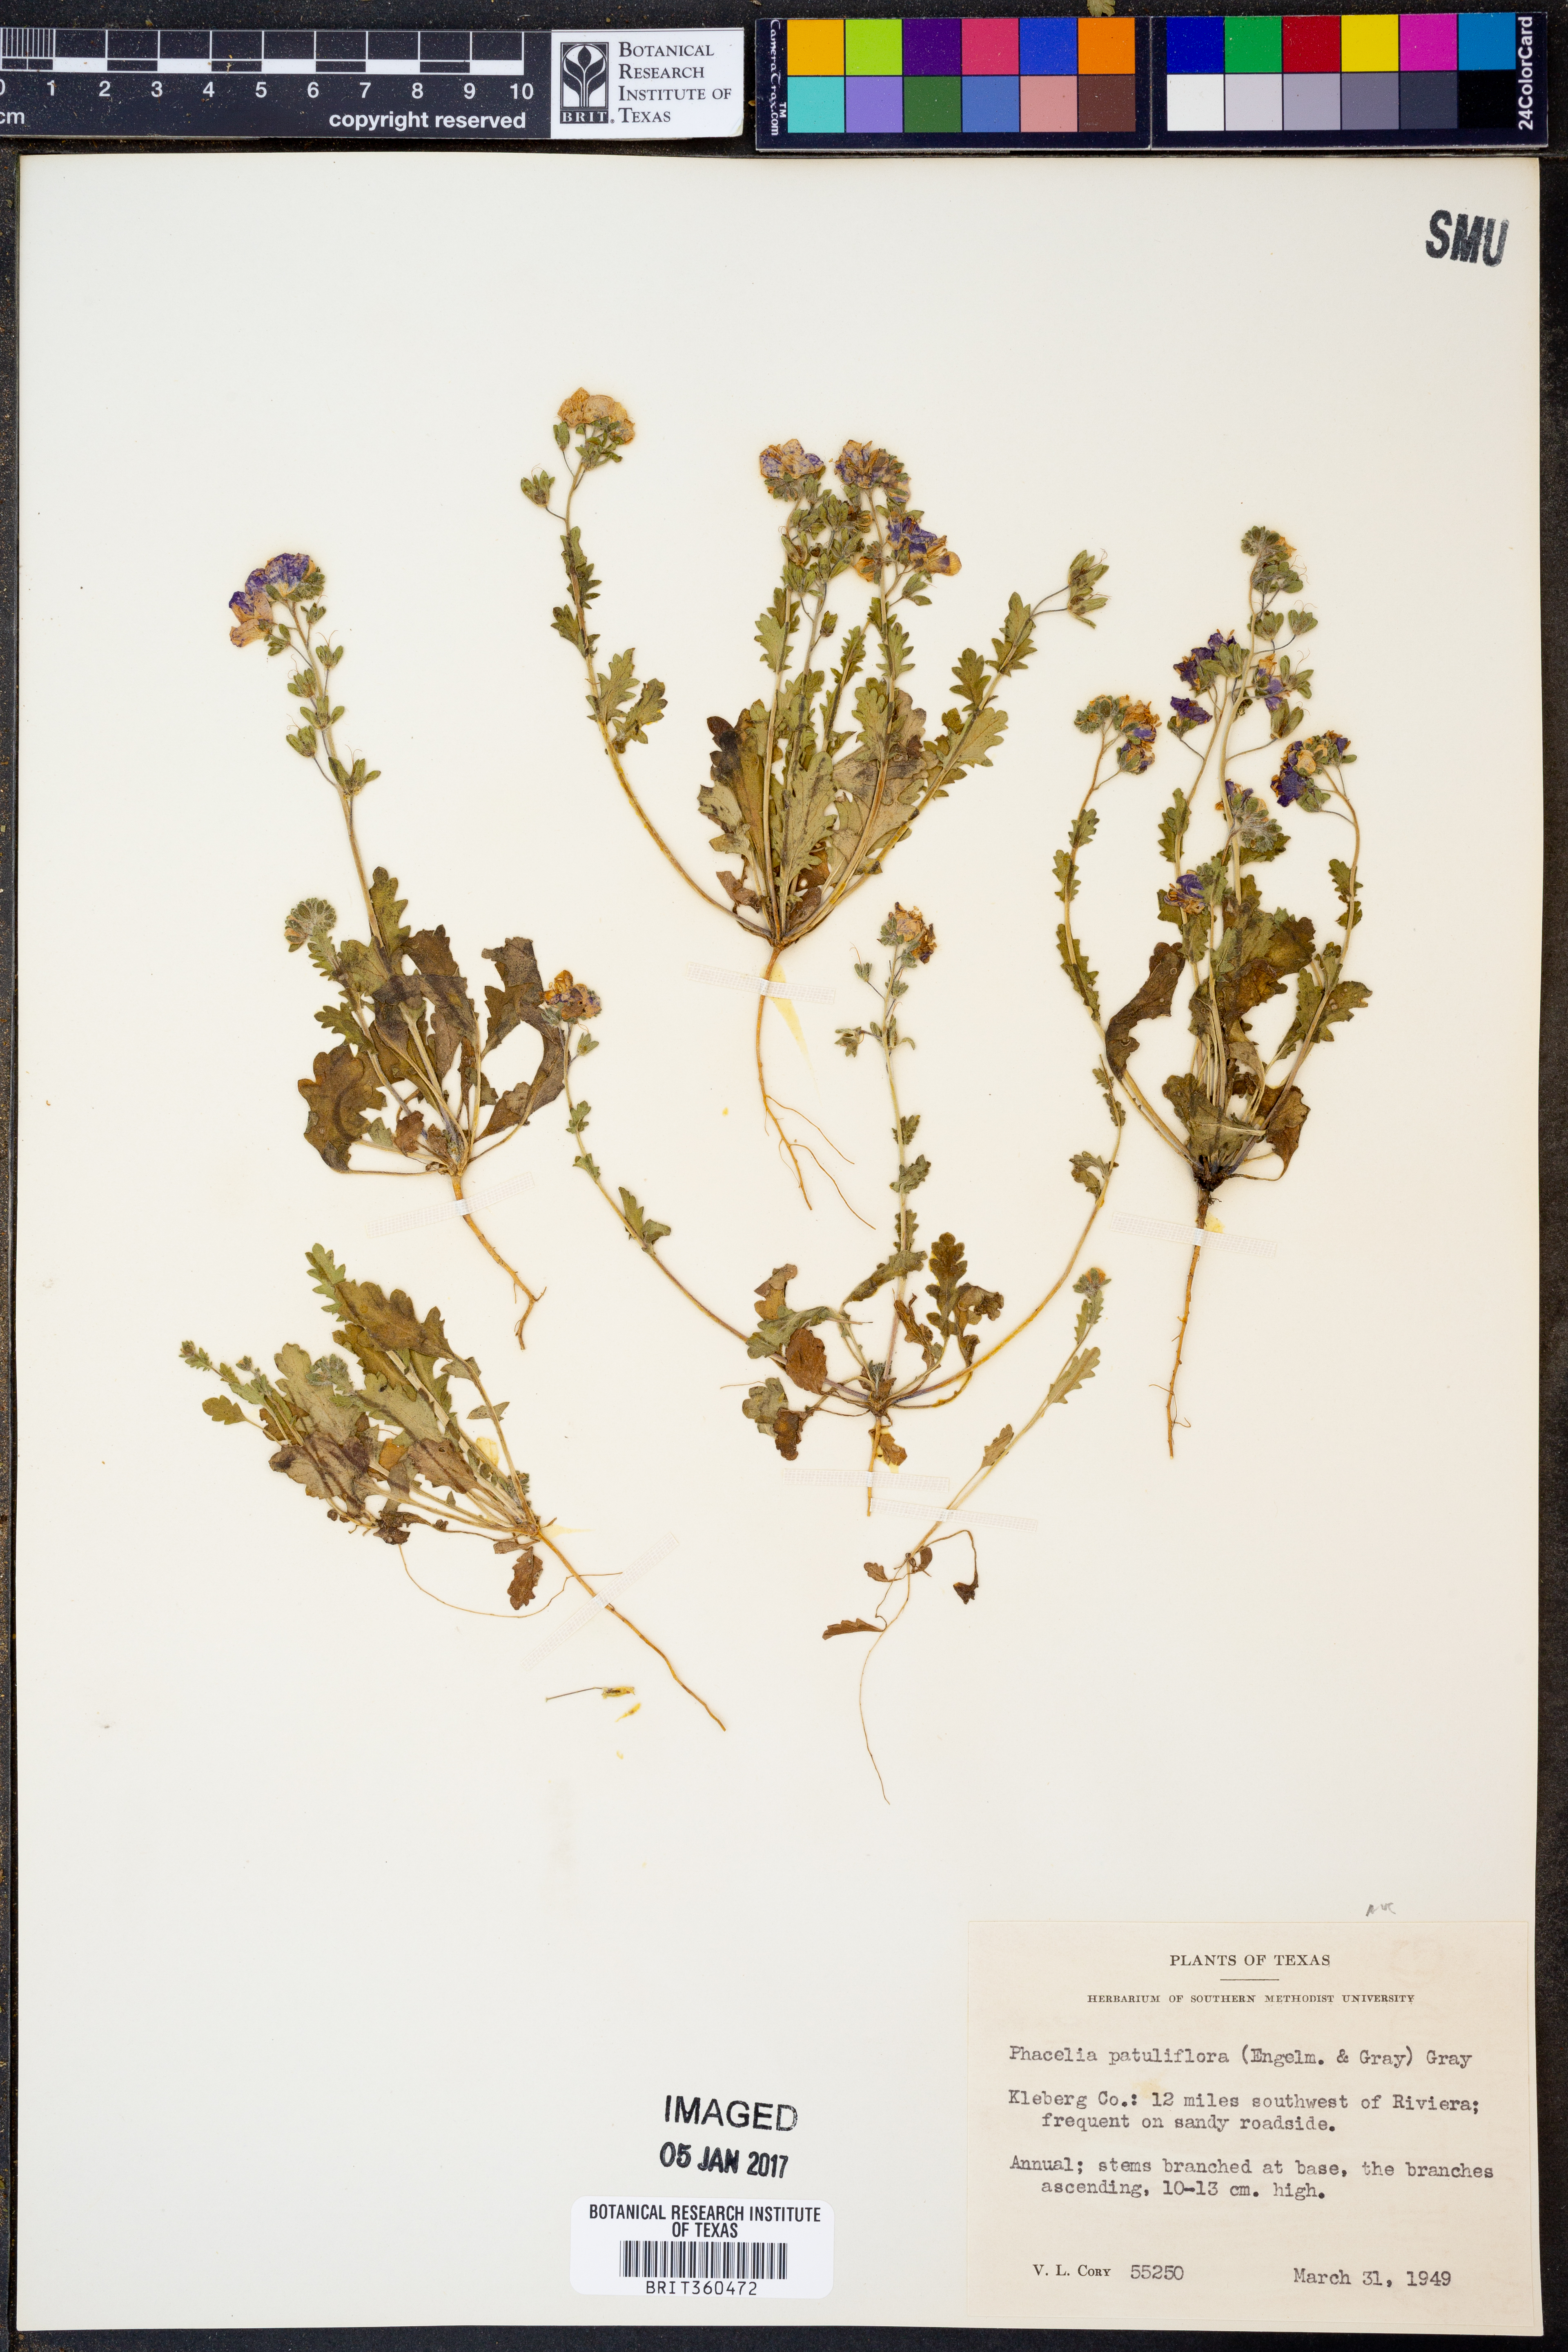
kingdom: Plantae
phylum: Tracheophyta
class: Magnoliopsida
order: Boraginales
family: Hydrophyllaceae
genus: Phacelia
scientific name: Phacelia patuliflora
